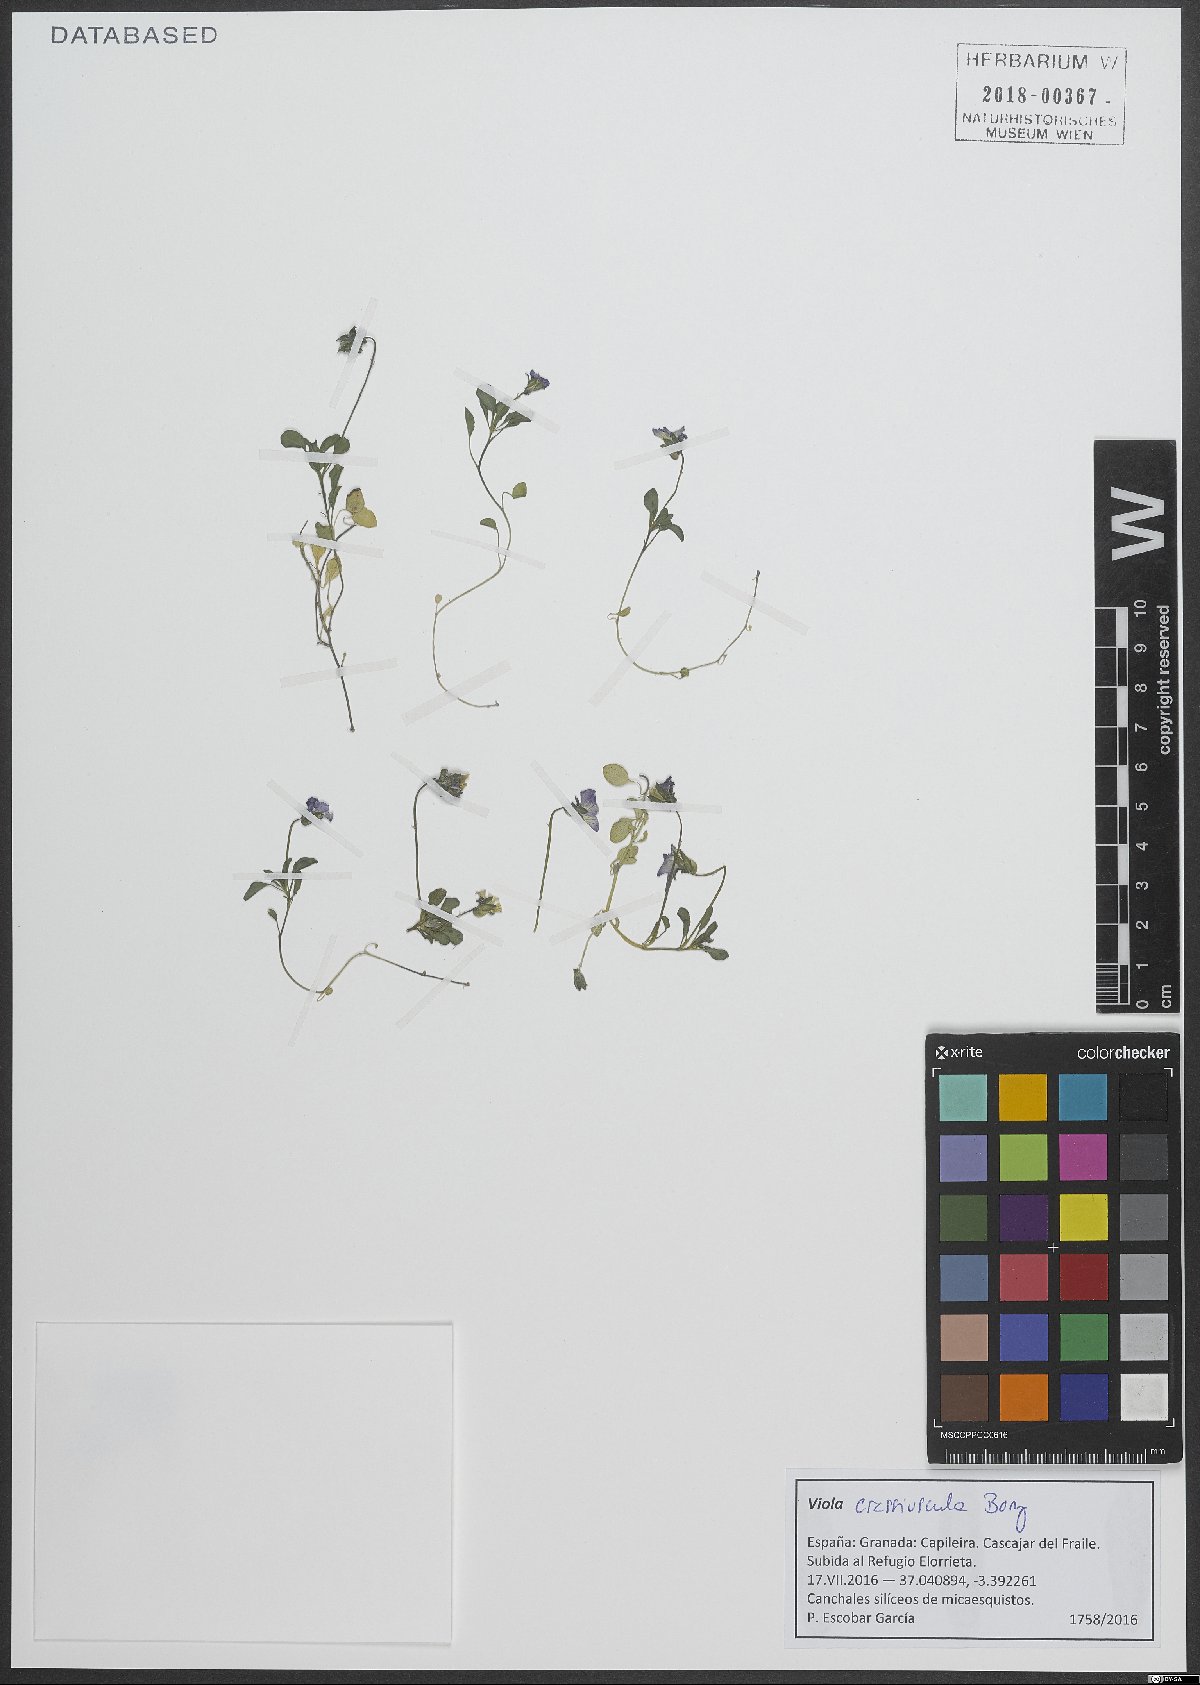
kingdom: Plantae
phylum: Tracheophyta
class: Magnoliopsida
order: Malpighiales
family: Violaceae
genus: Viola
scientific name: Viola crassiuscula
